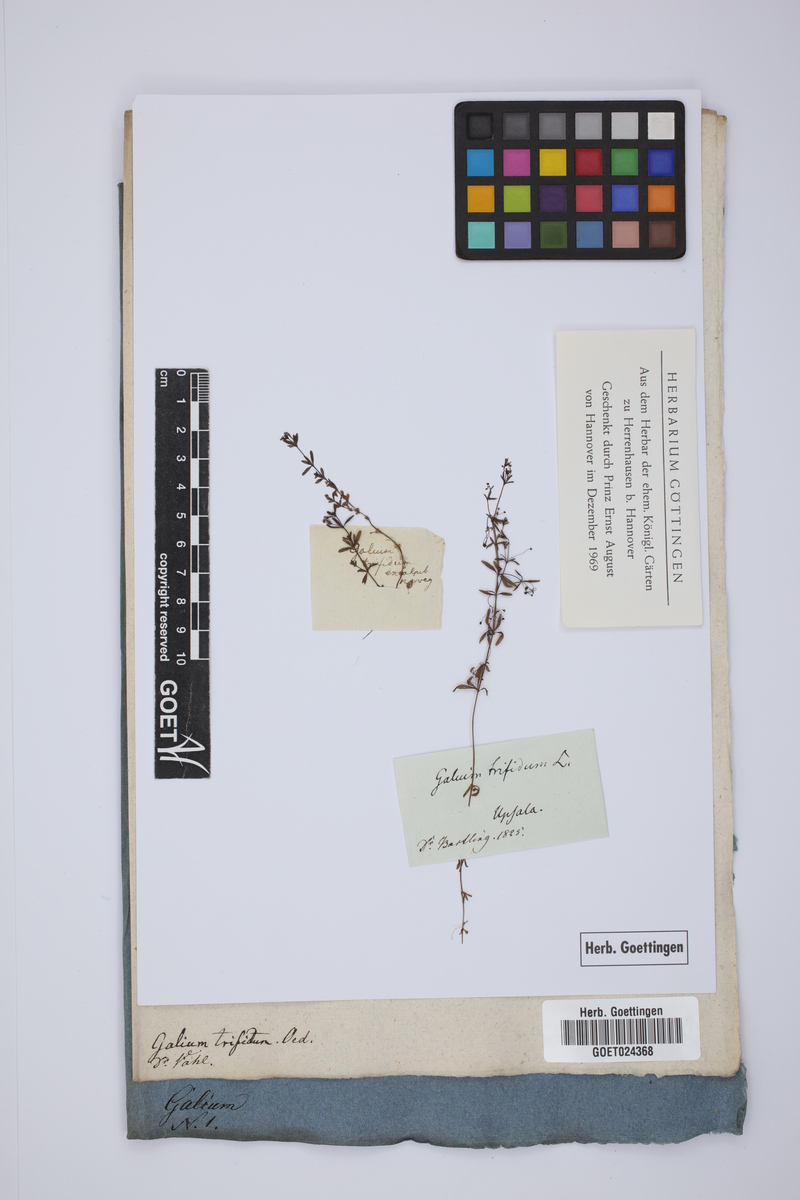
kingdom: Plantae
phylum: Tracheophyta
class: Magnoliopsida
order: Gentianales
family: Rubiaceae
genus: Galium
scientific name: Galium trifidum
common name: Small bedstraw
